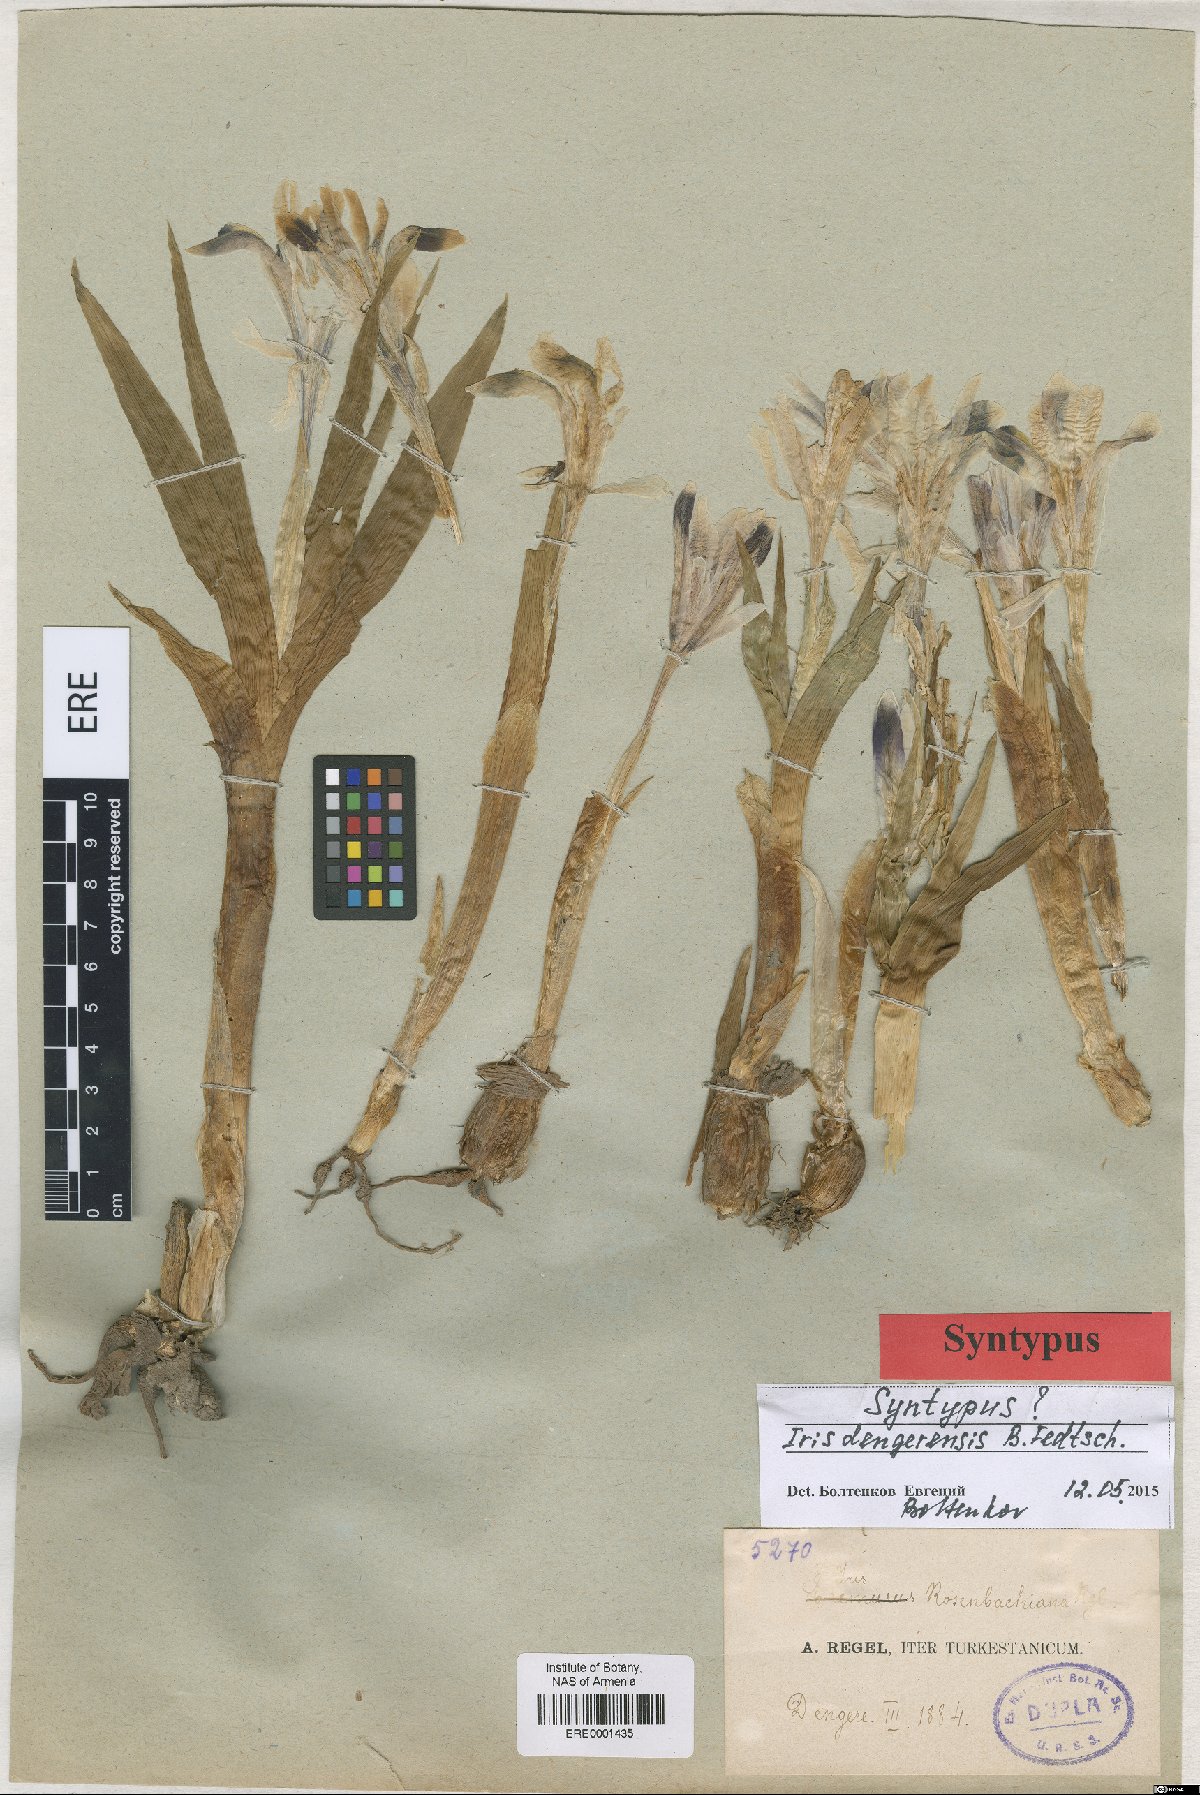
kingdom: Plantae
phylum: Tracheophyta
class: Liliopsida
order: Asparagales
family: Iridaceae
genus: Iris
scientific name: Iris narbutii
